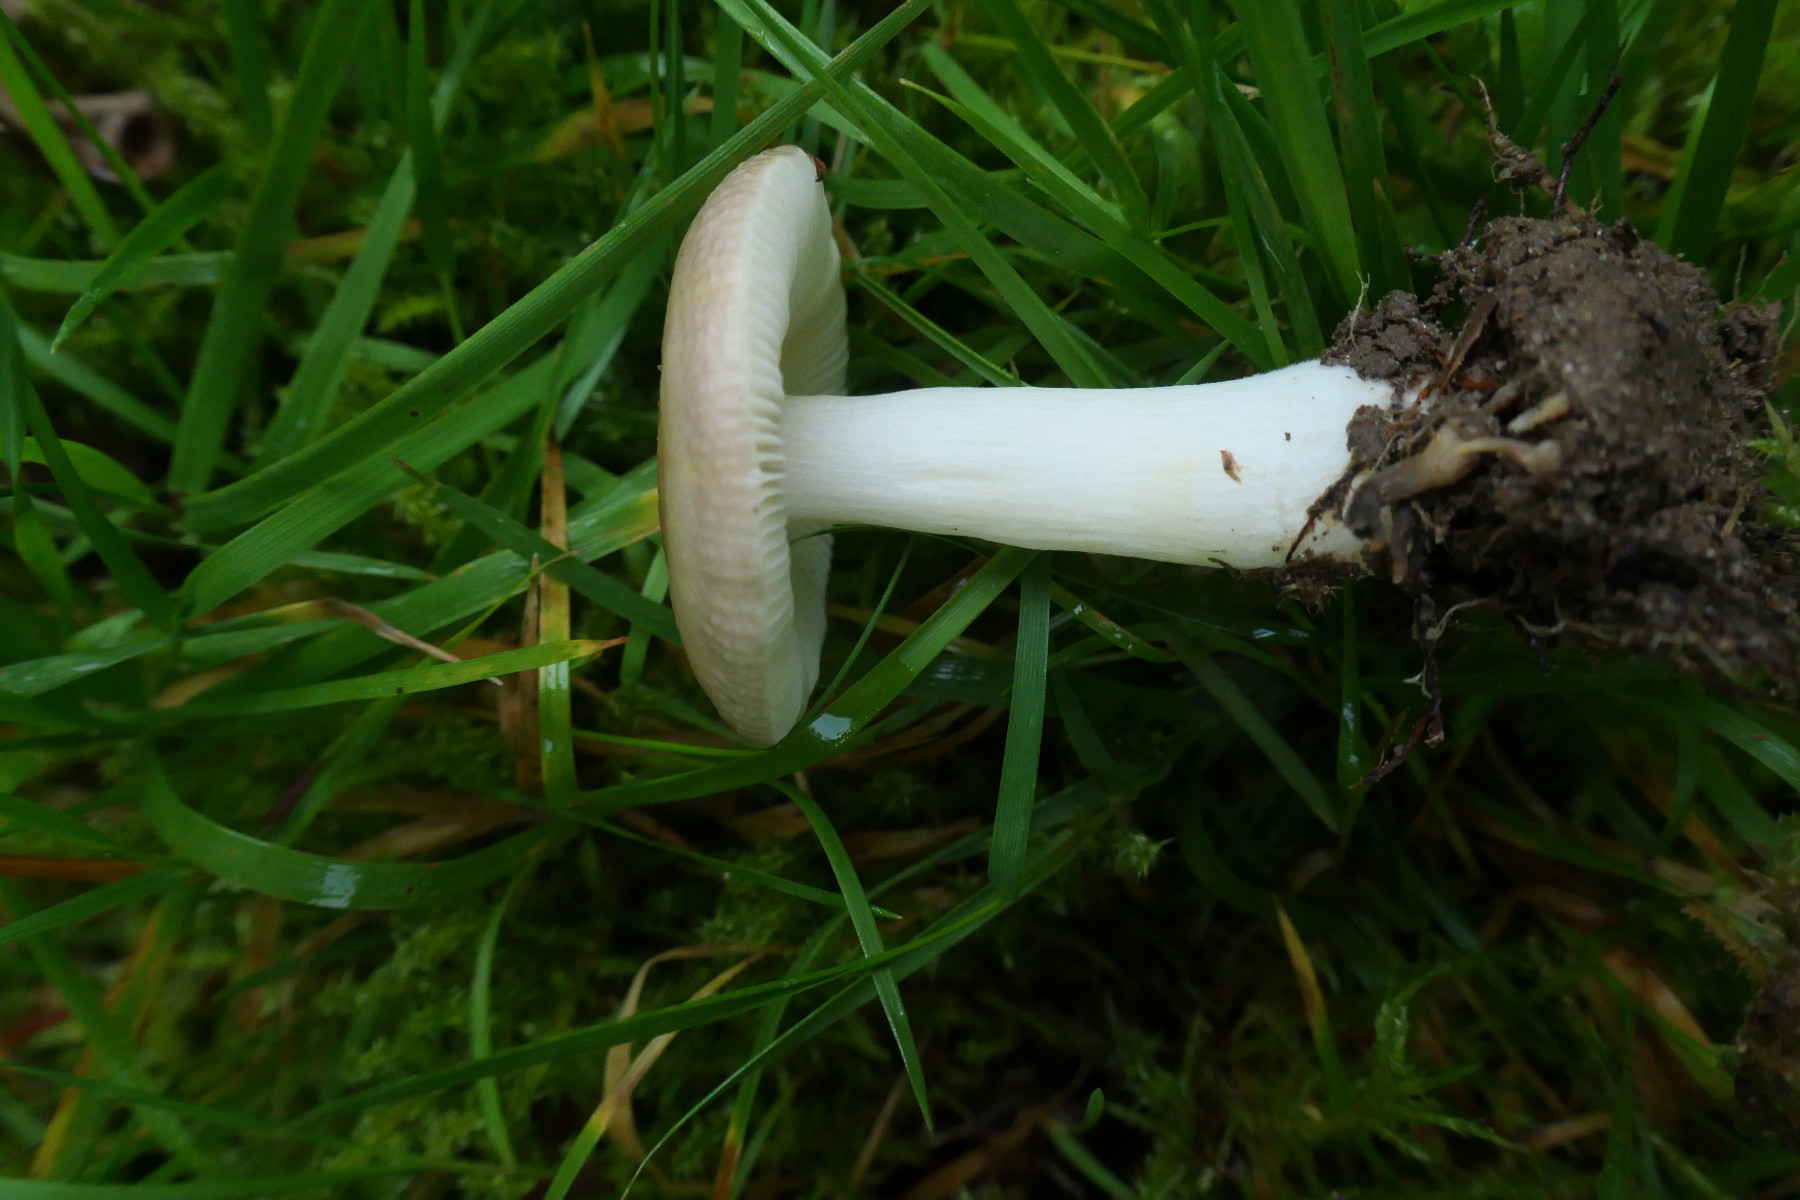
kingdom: Fungi
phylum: Basidiomycota
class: Agaricomycetes
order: Russulales
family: Russulaceae
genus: Russula
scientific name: Russula puellaris
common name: gulstokket skørhat
